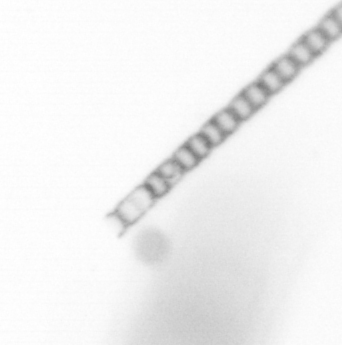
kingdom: Chromista
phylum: Ochrophyta
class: Bacillariophyceae
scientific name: Bacillariophyceae
